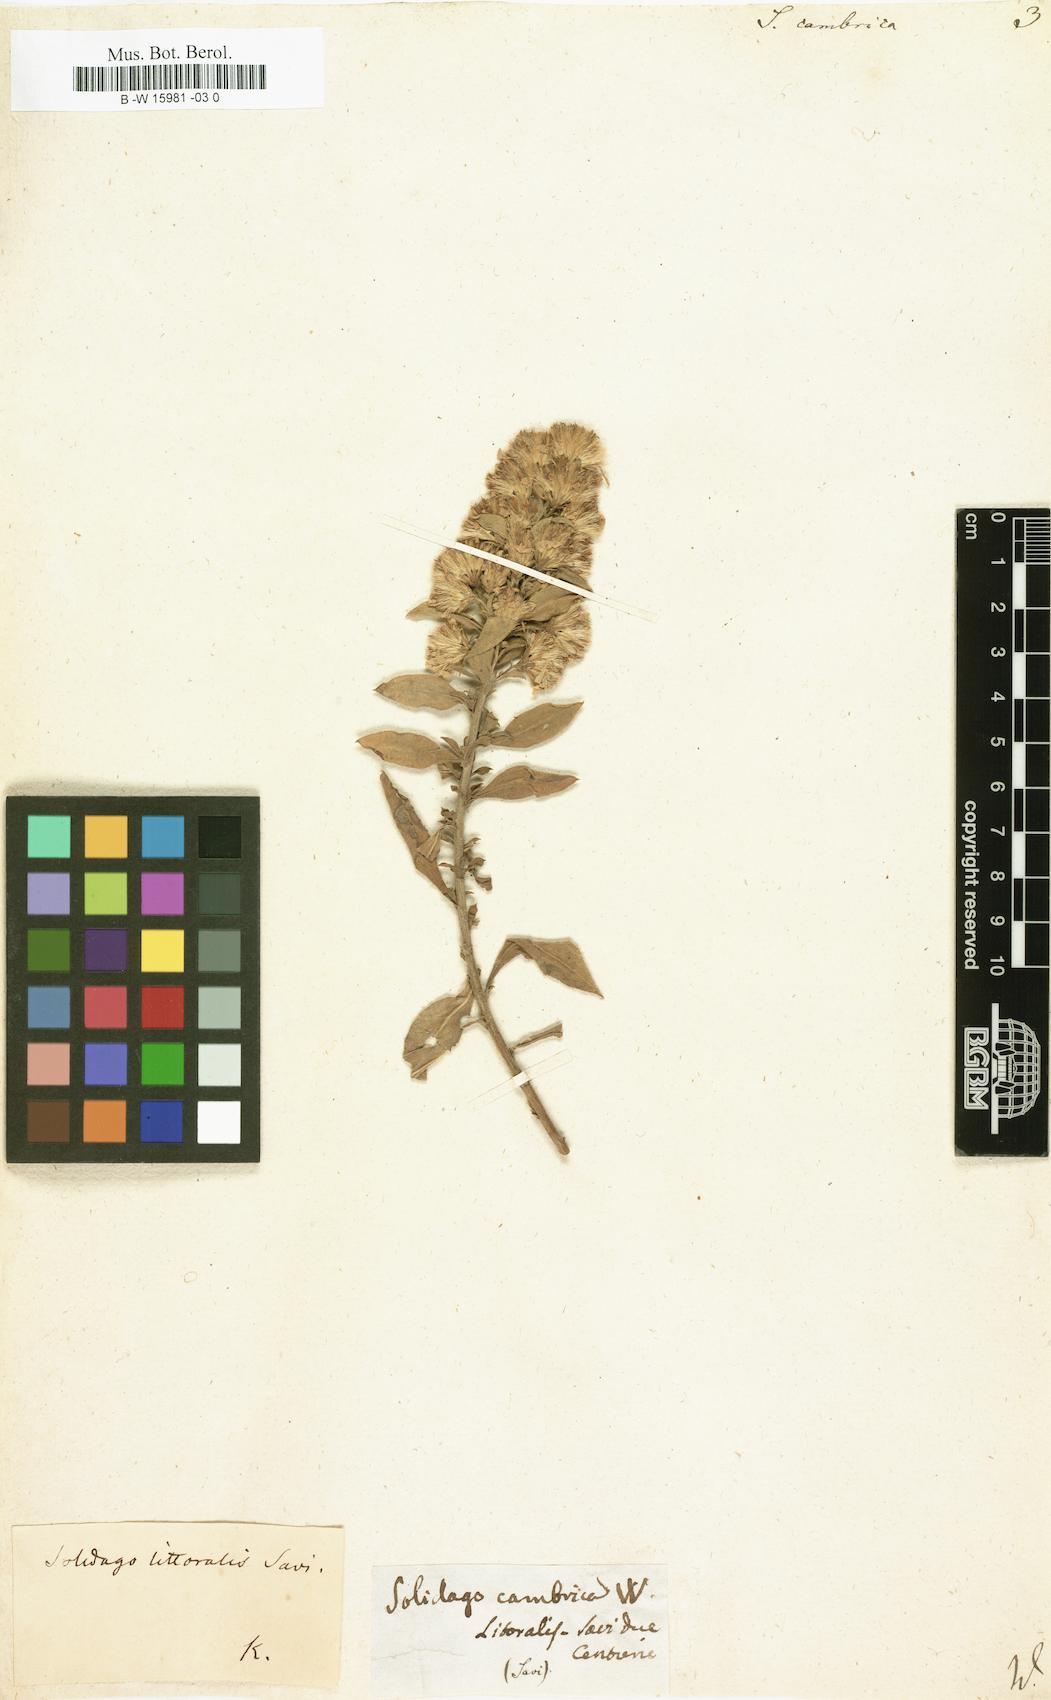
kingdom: Plantae
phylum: Tracheophyta
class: Magnoliopsida
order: Asterales
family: Asteraceae
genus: Solidago
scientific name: Solidago virgaurea
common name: Goldenrod
